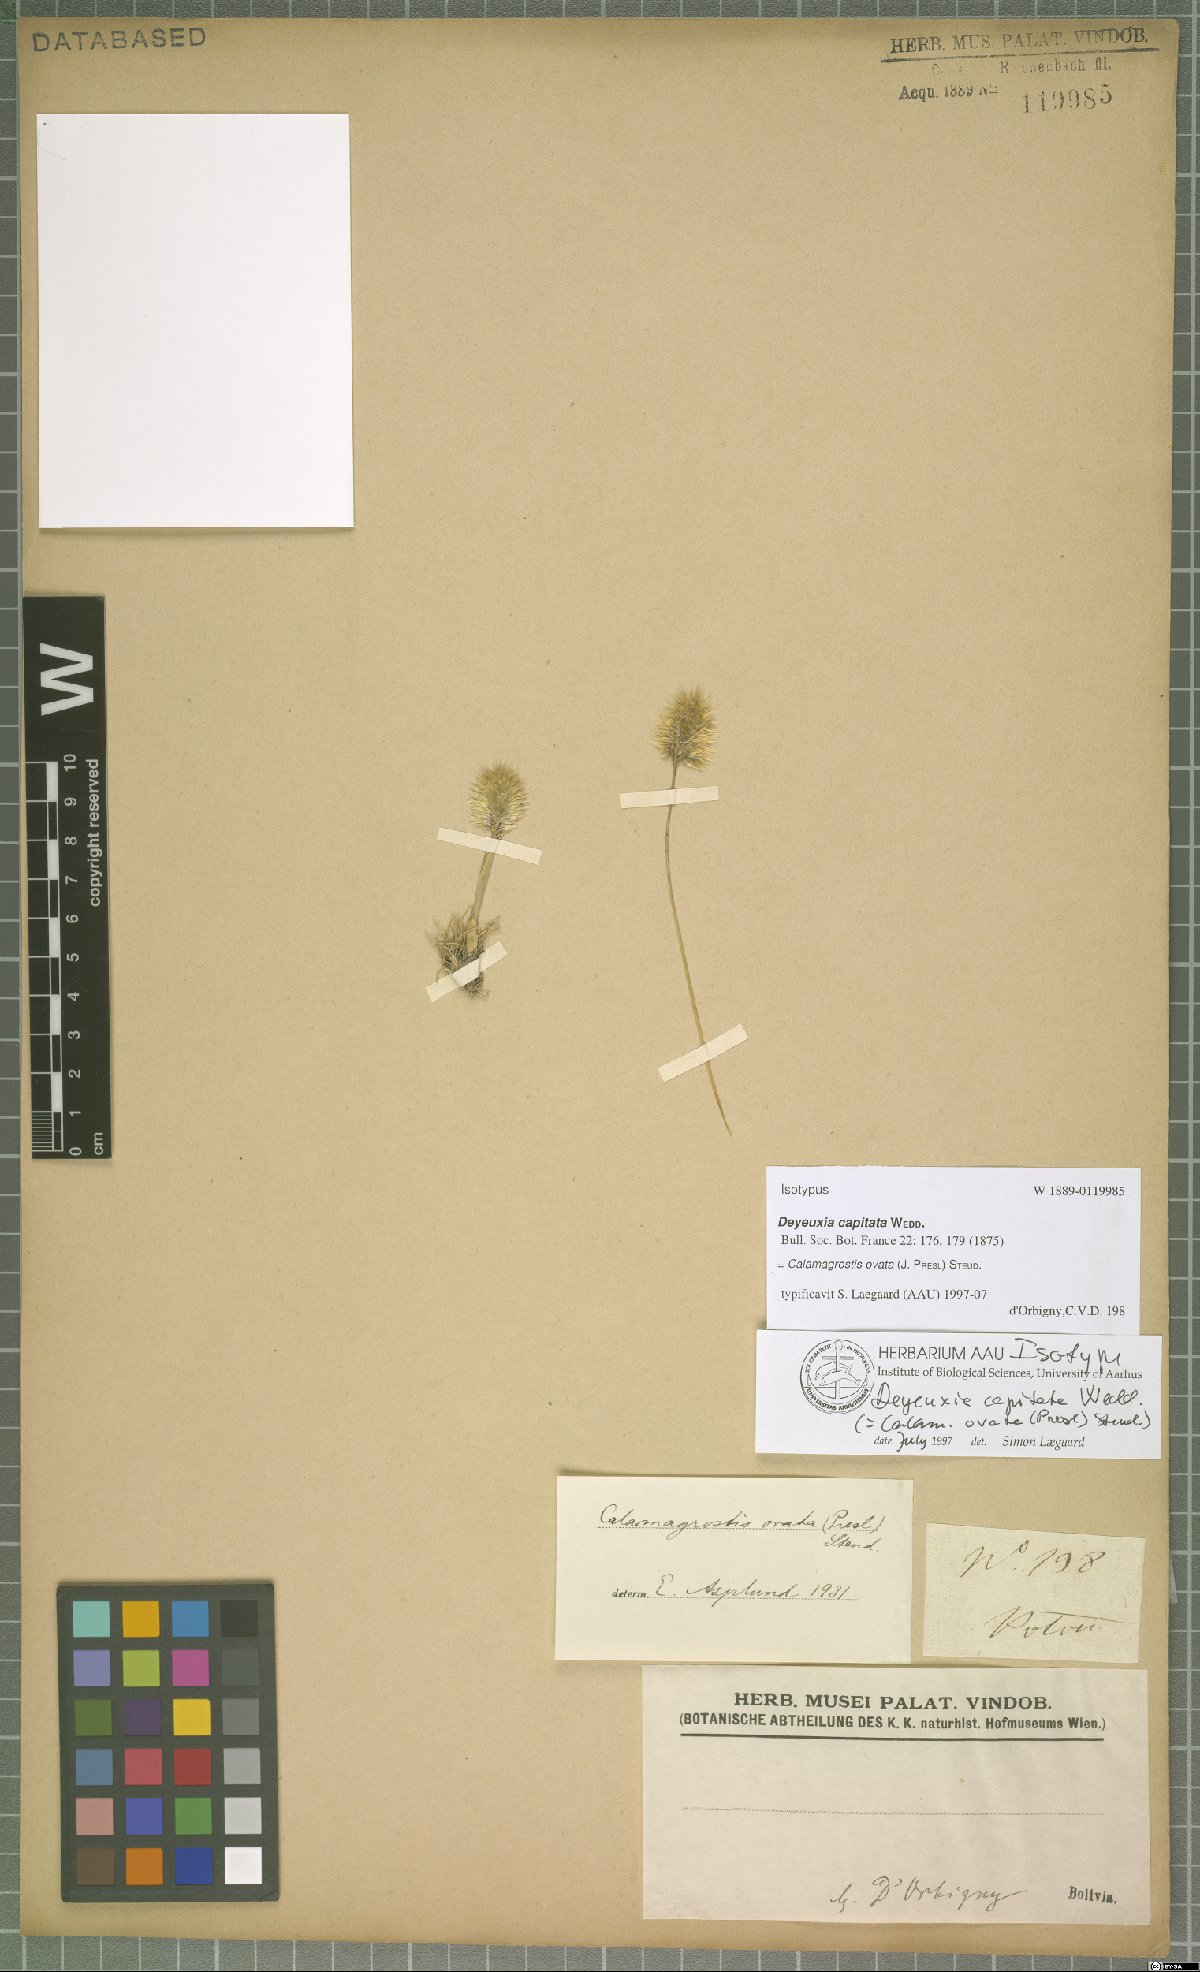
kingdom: Plantae
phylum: Tracheophyta
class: Liliopsida
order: Poales
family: Poaceae
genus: Deschampsia
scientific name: Deschampsia ovata
